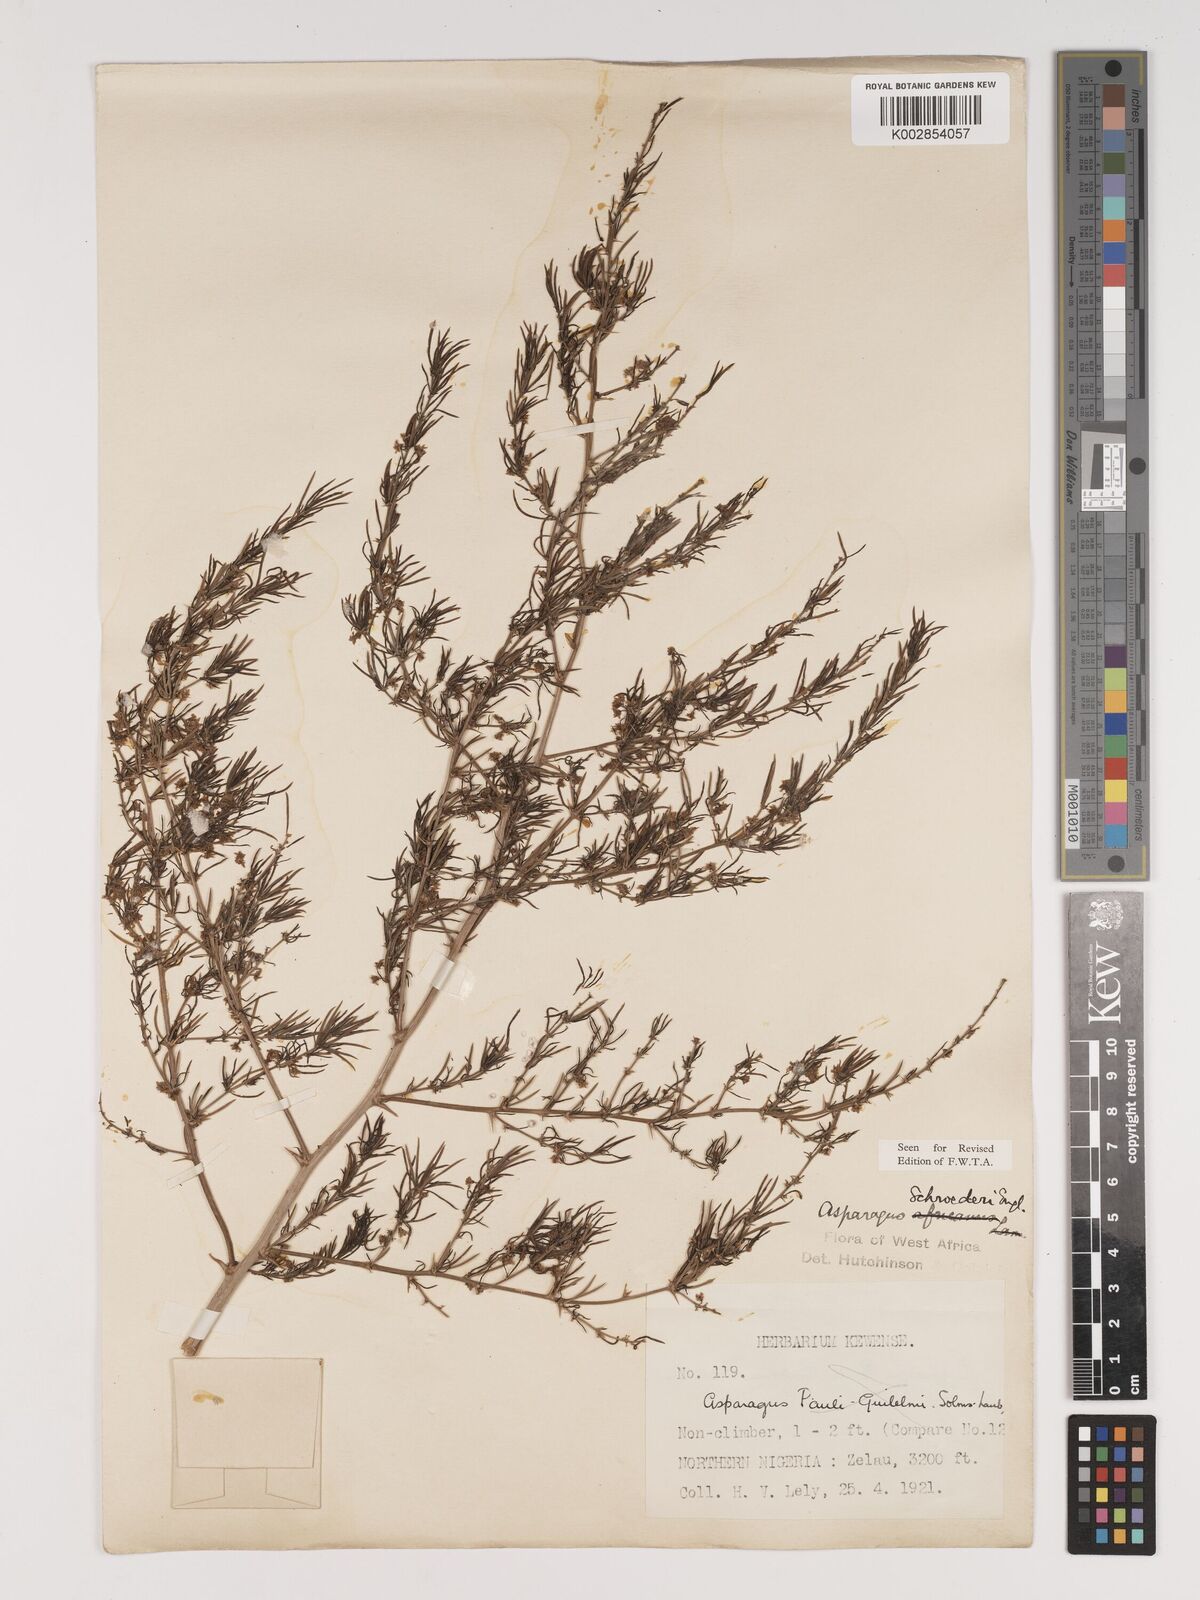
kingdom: Plantae
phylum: Tracheophyta
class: Liliopsida
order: Asparagales
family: Asparagaceae
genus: Asparagus
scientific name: Asparagus schroederi
